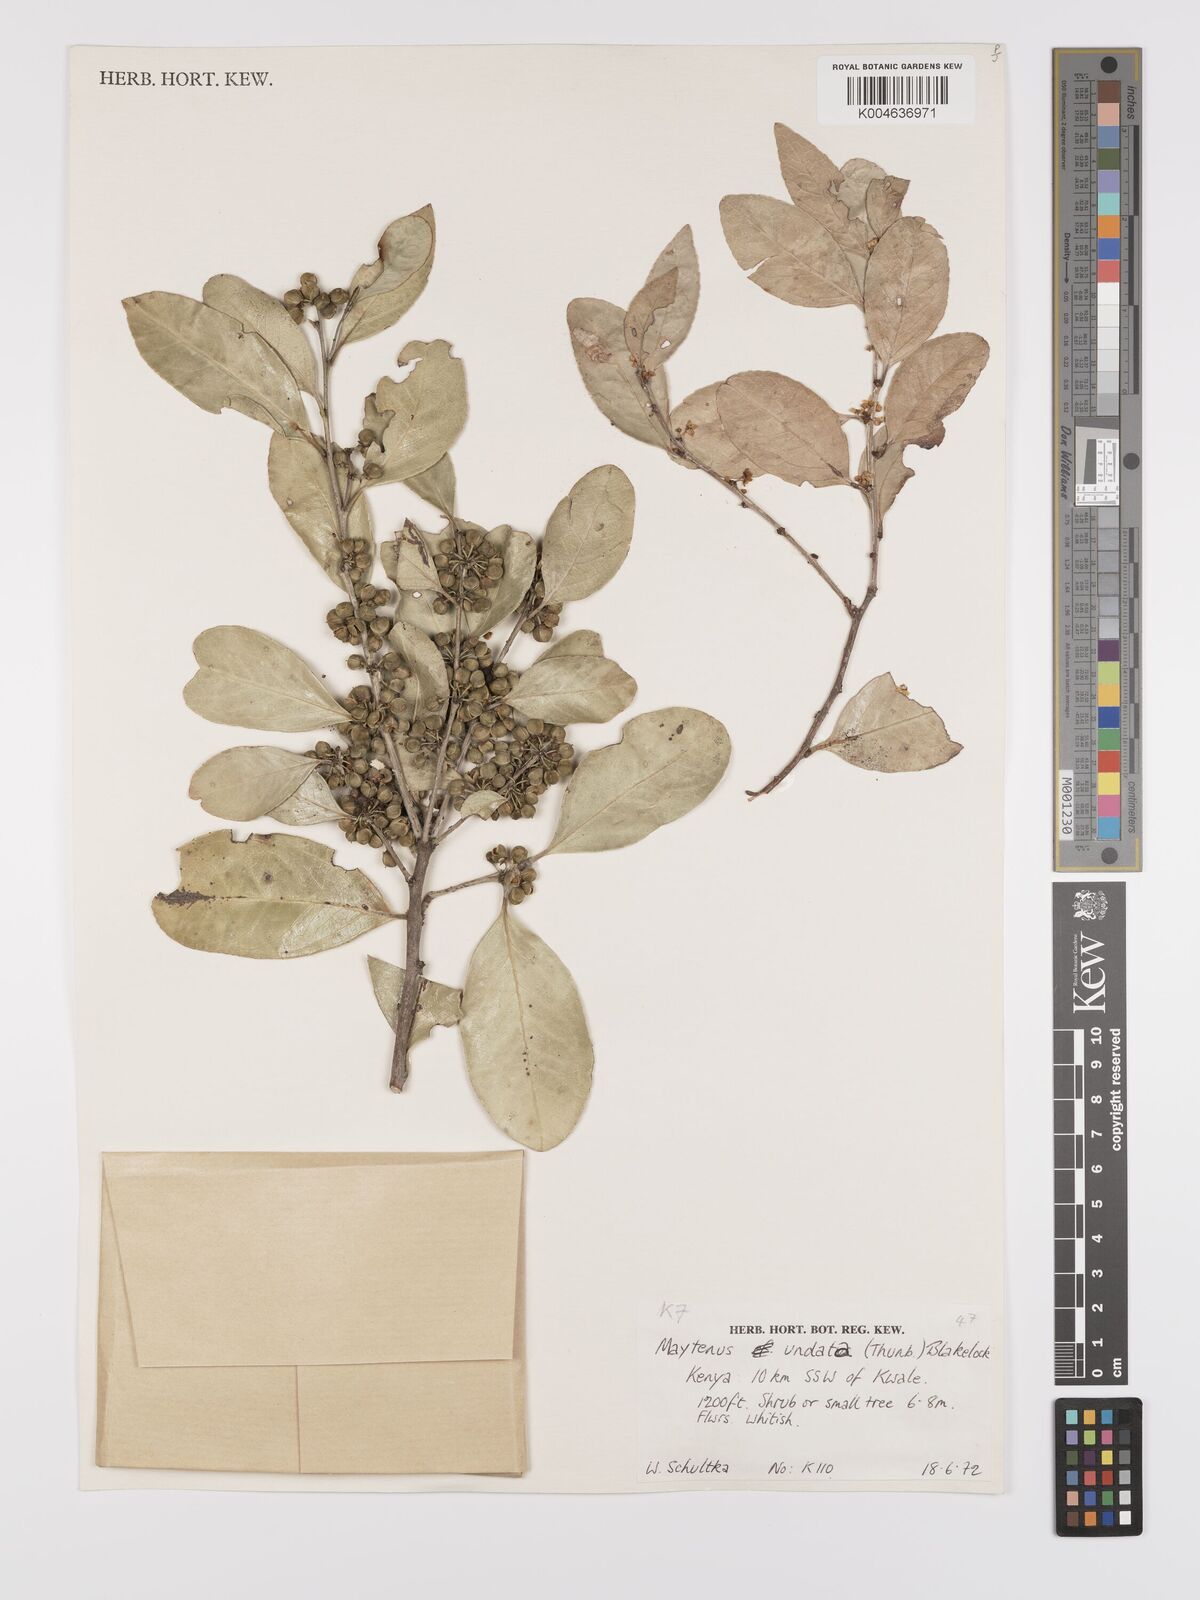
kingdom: Plantae
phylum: Tracheophyta
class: Magnoliopsida
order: Celastrales
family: Celastraceae
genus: Gymnosporia
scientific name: Gymnosporia undata
